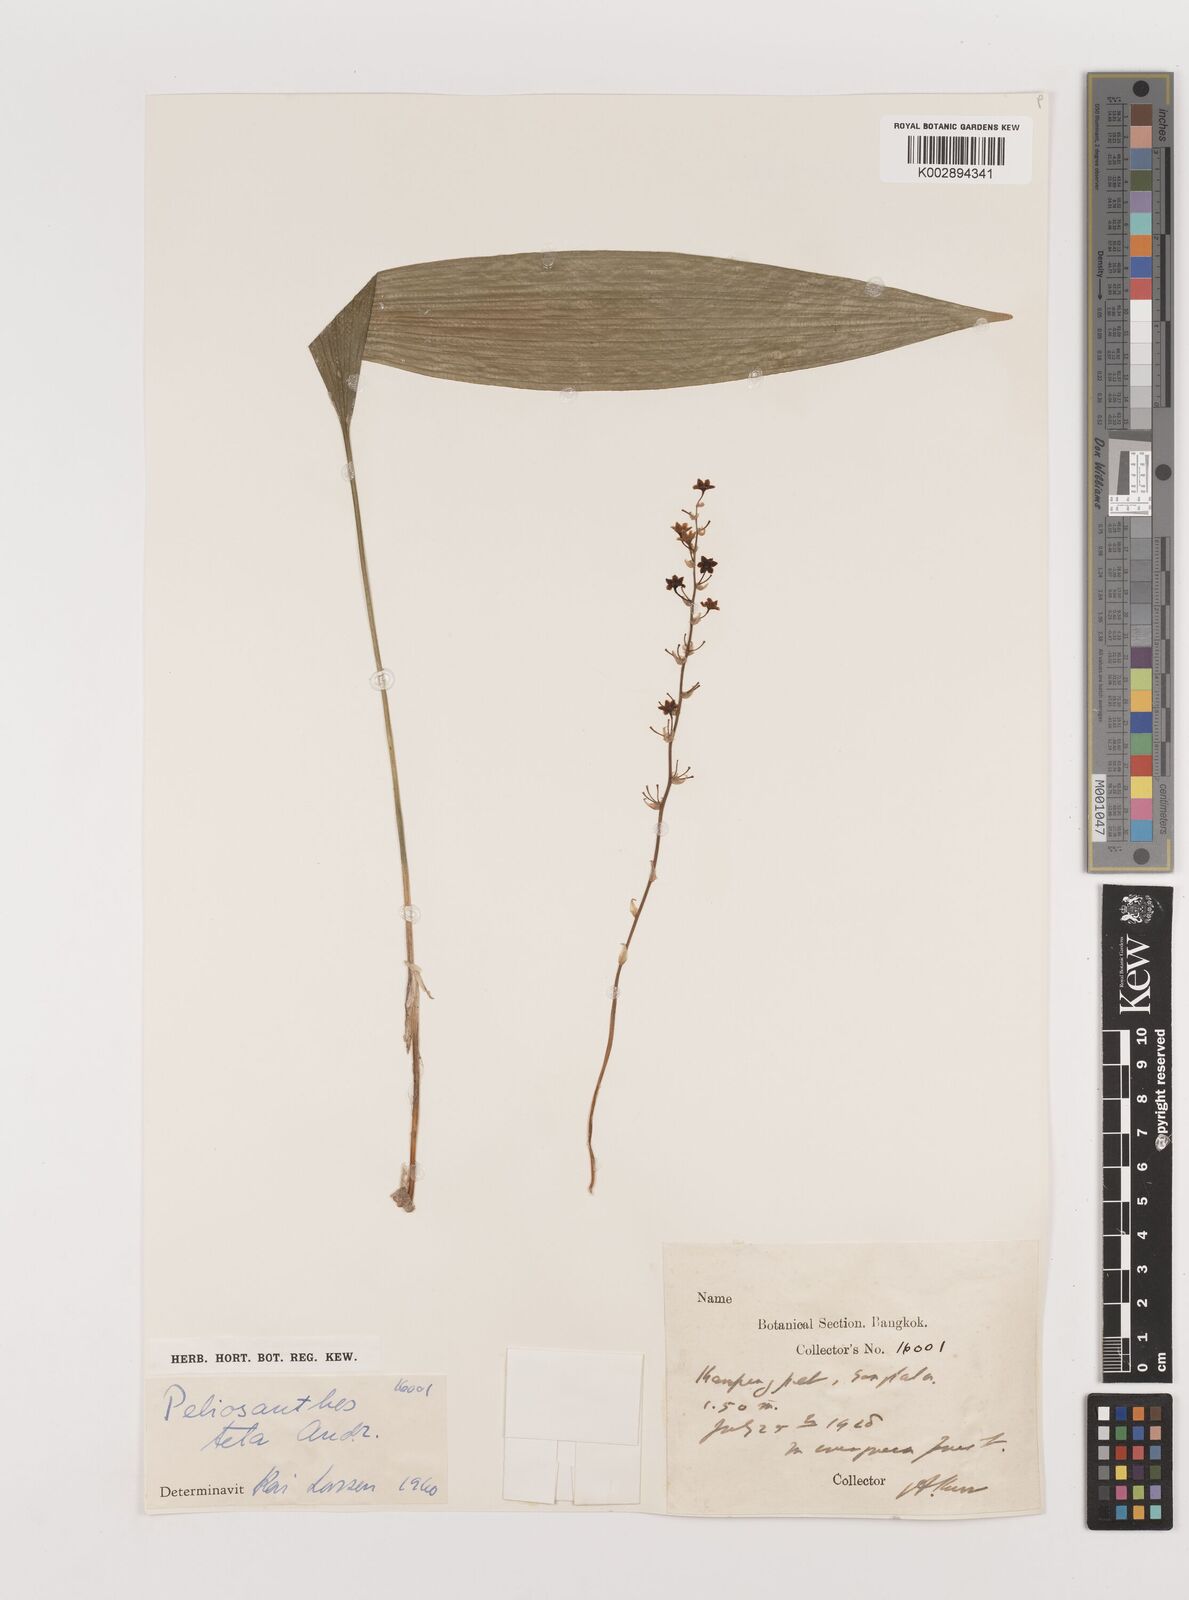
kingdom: Plantae
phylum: Tracheophyta
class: Liliopsida
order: Asparagales
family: Asparagaceae
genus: Peliosanthes
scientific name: Peliosanthes teta
